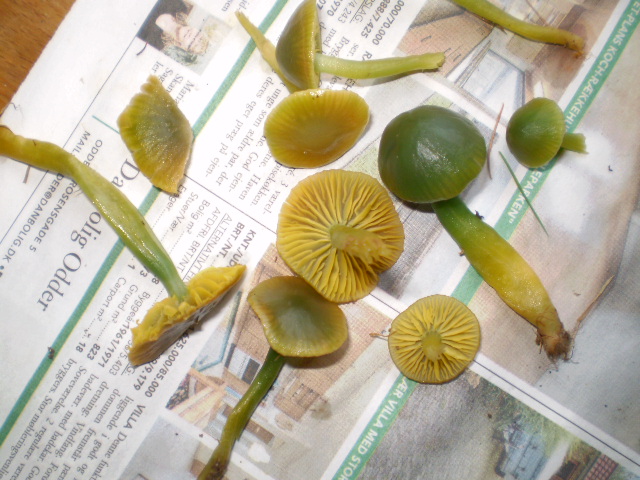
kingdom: Fungi
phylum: Basidiomycota
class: Agaricomycetes
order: Agaricales
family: Hygrophoraceae
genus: Gliophorus
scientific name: Gliophorus psittacinus
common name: papegøje-vokshat
